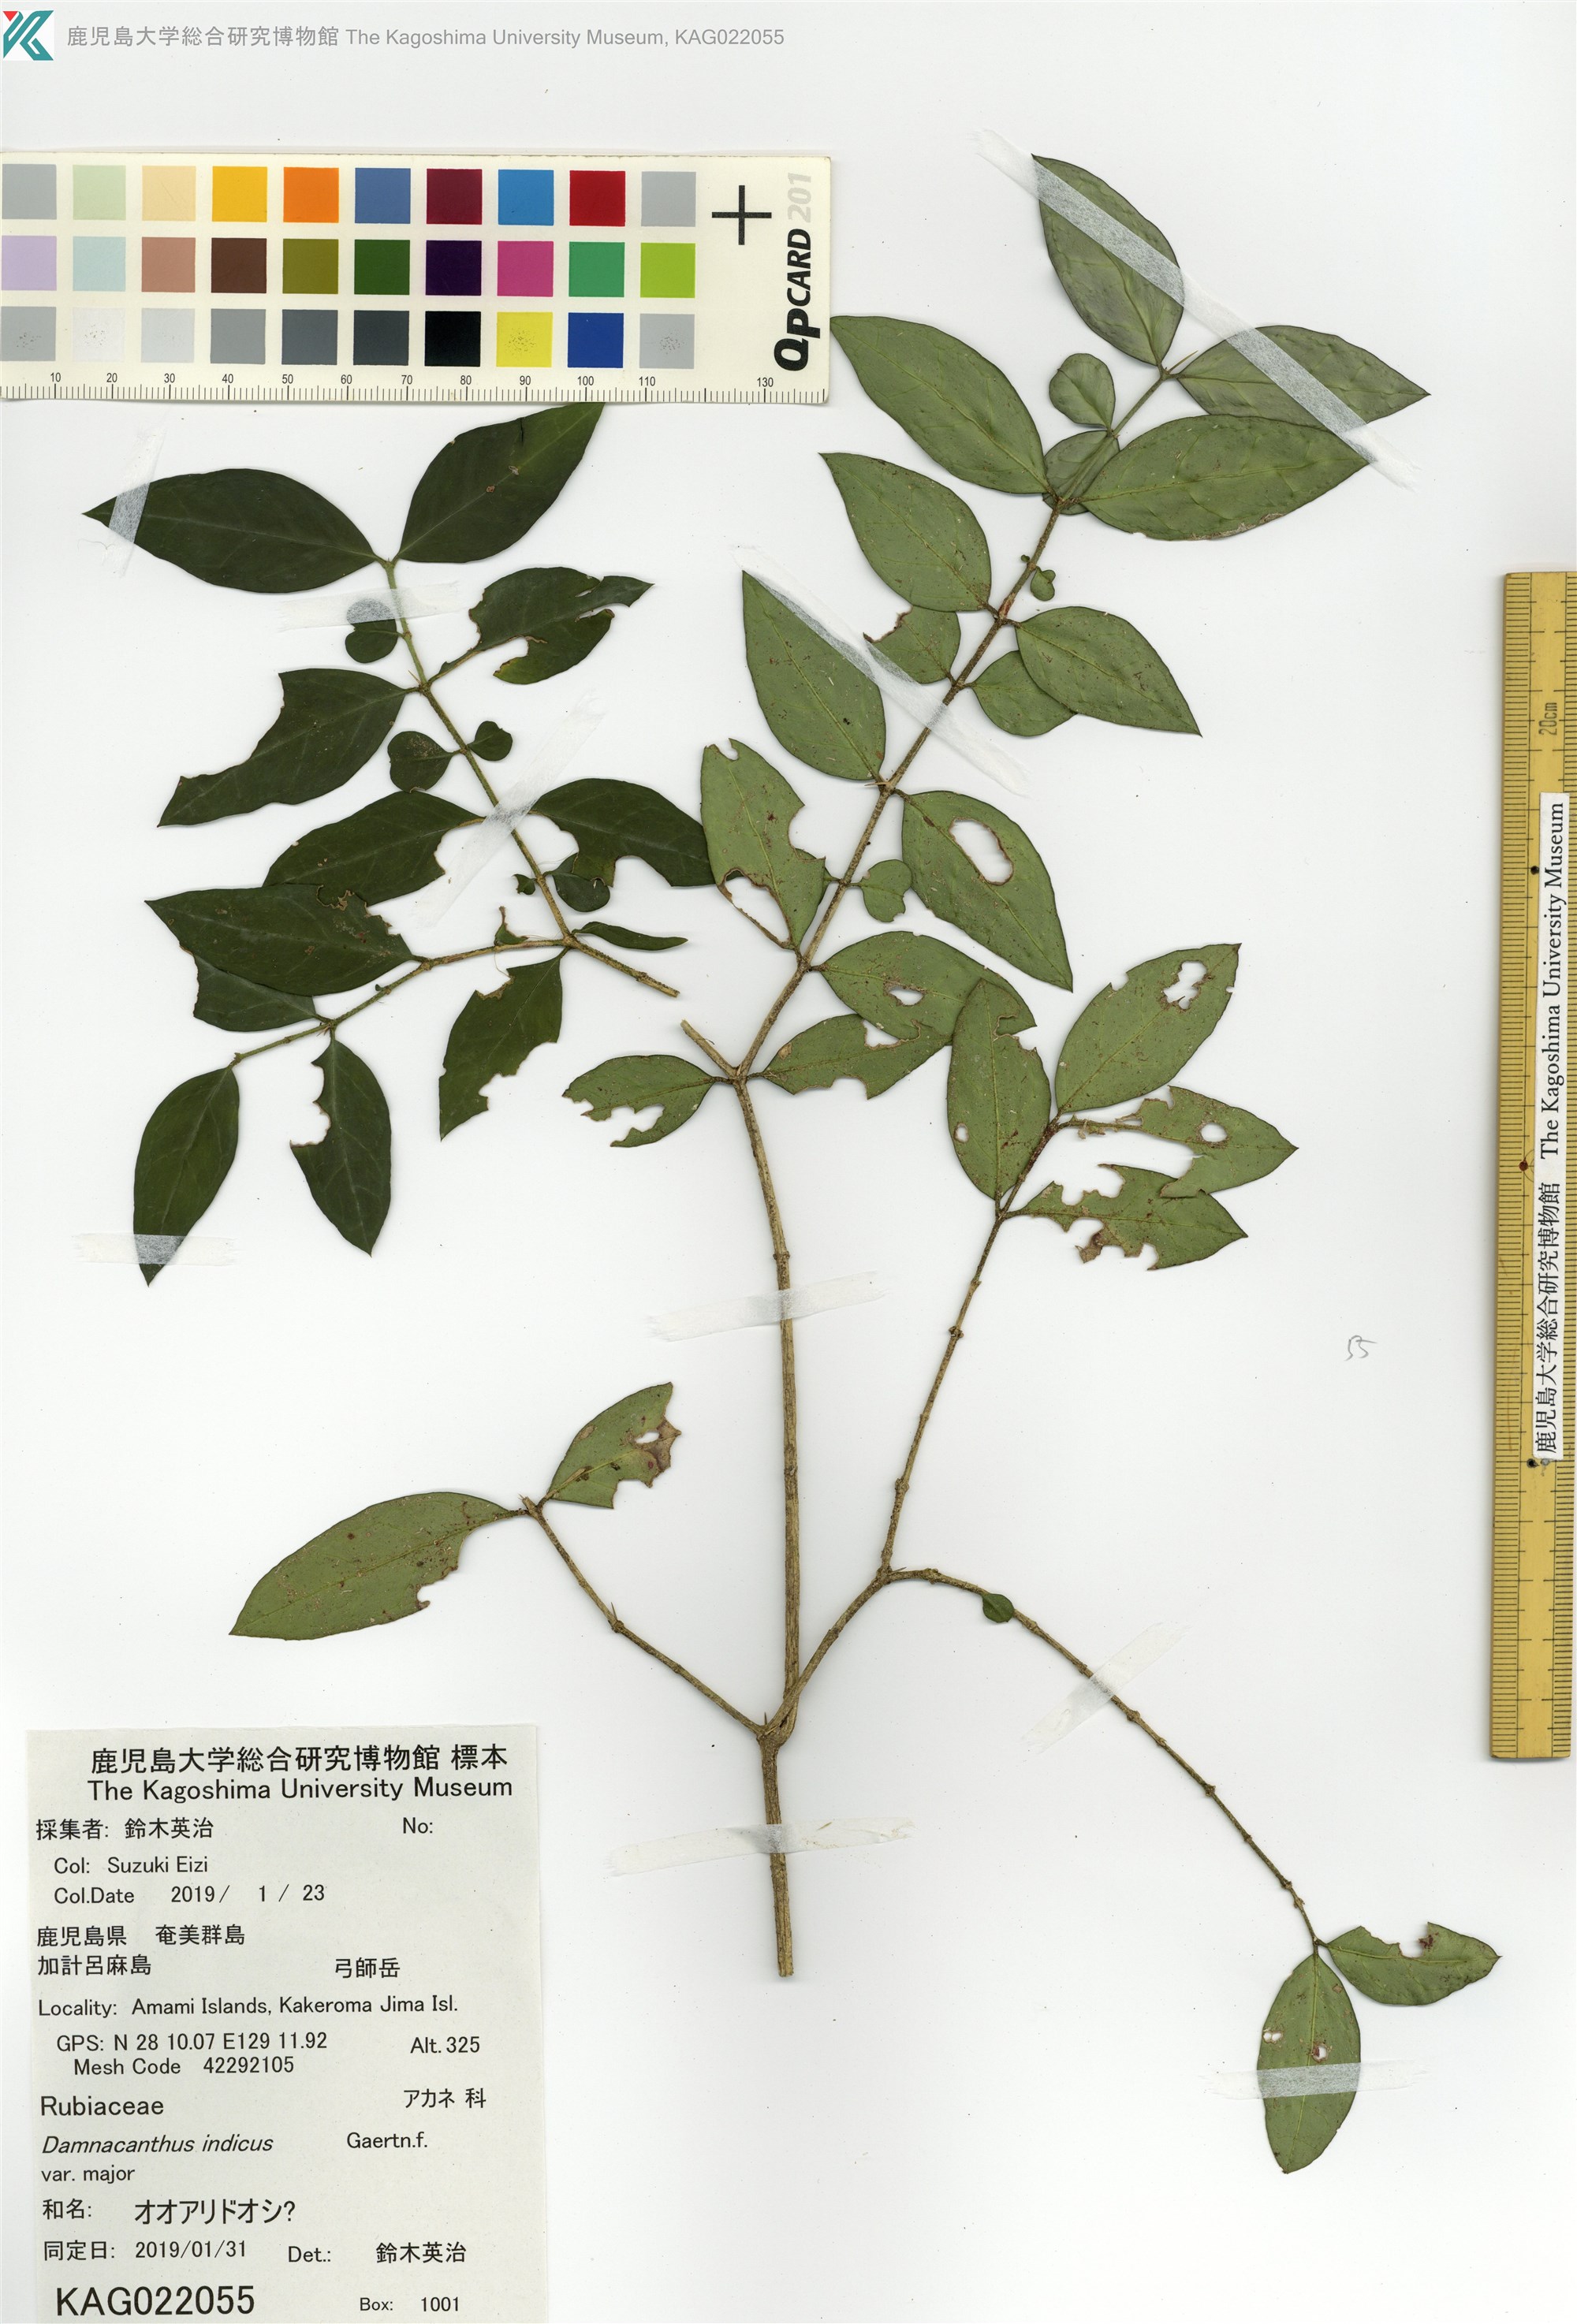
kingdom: Plantae
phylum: Tracheophyta
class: Magnoliopsida
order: Gentianales
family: Rubiaceae
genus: Damnacanthus
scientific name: Damnacanthus major
